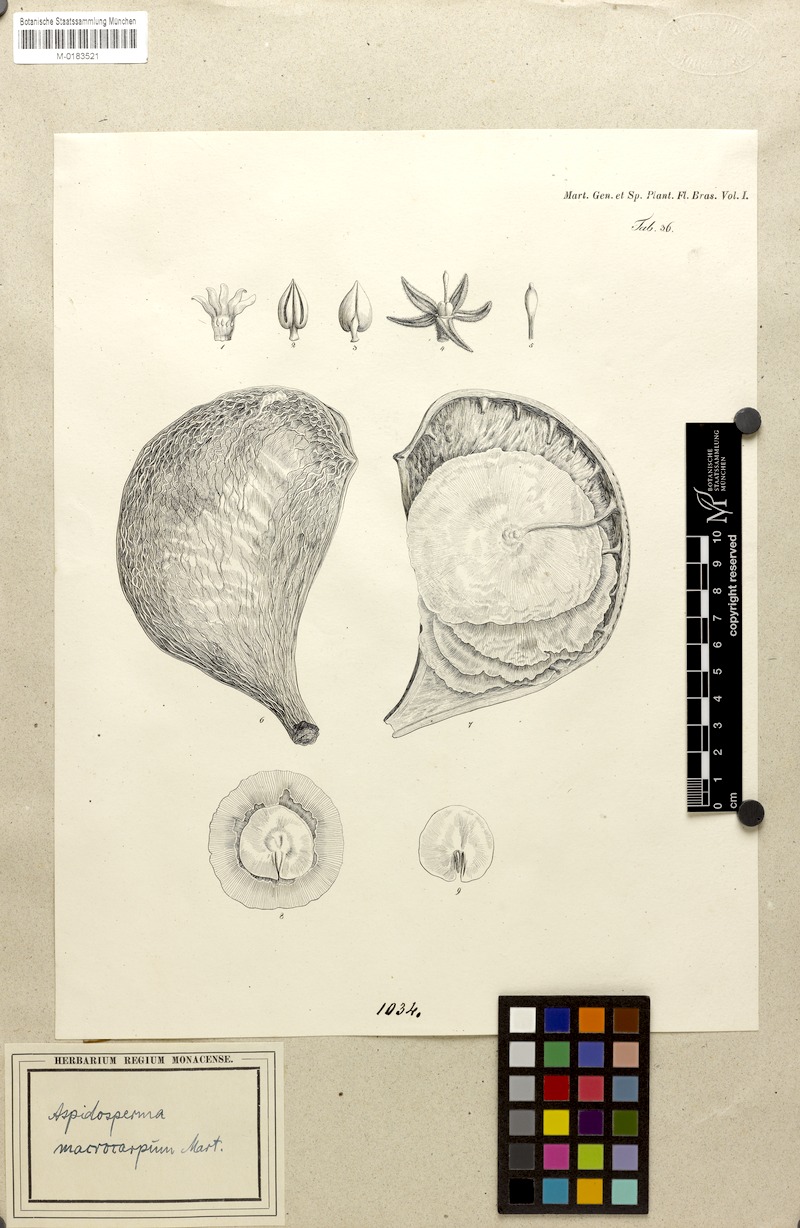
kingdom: Plantae
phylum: Tracheophyta
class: Magnoliopsida
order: Gentianales
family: Apocynaceae
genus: Aspidosperma
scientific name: Aspidosperma macrocarpon
